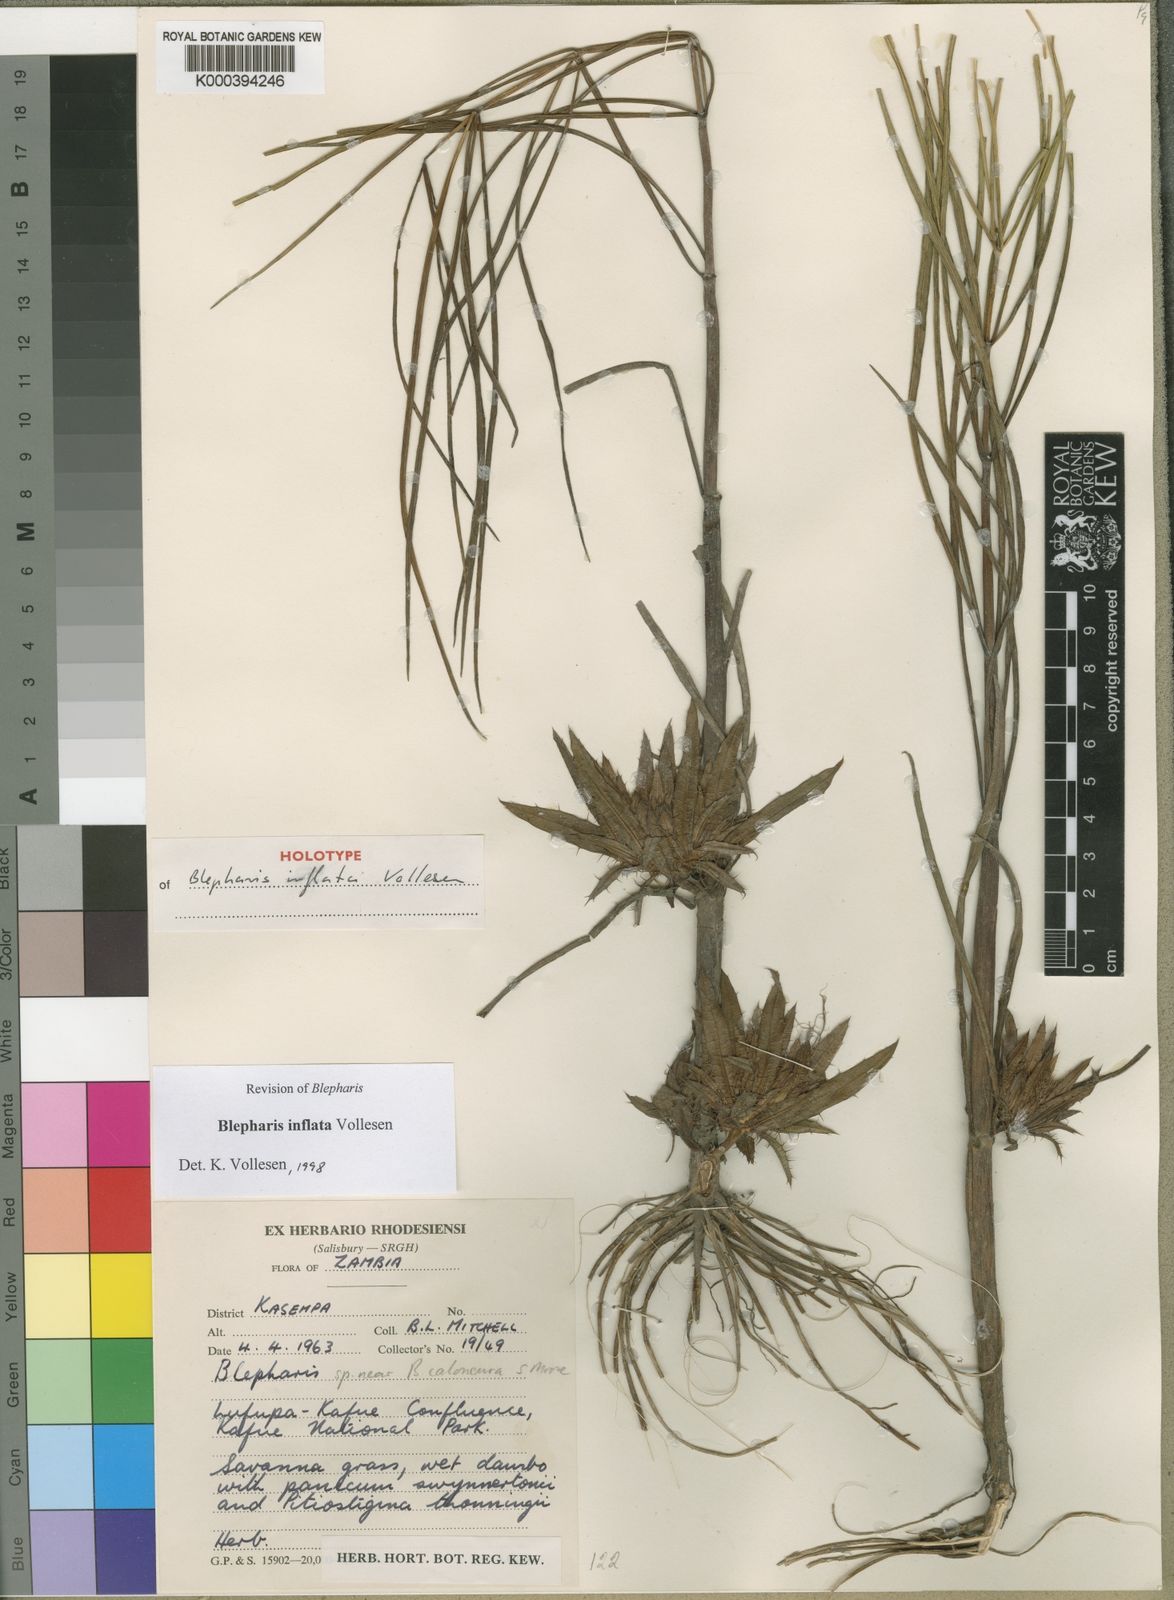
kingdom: Plantae
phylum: Tracheophyta
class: Magnoliopsida
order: Lamiales
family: Acanthaceae
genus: Blepharis
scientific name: Blepharis inflata
